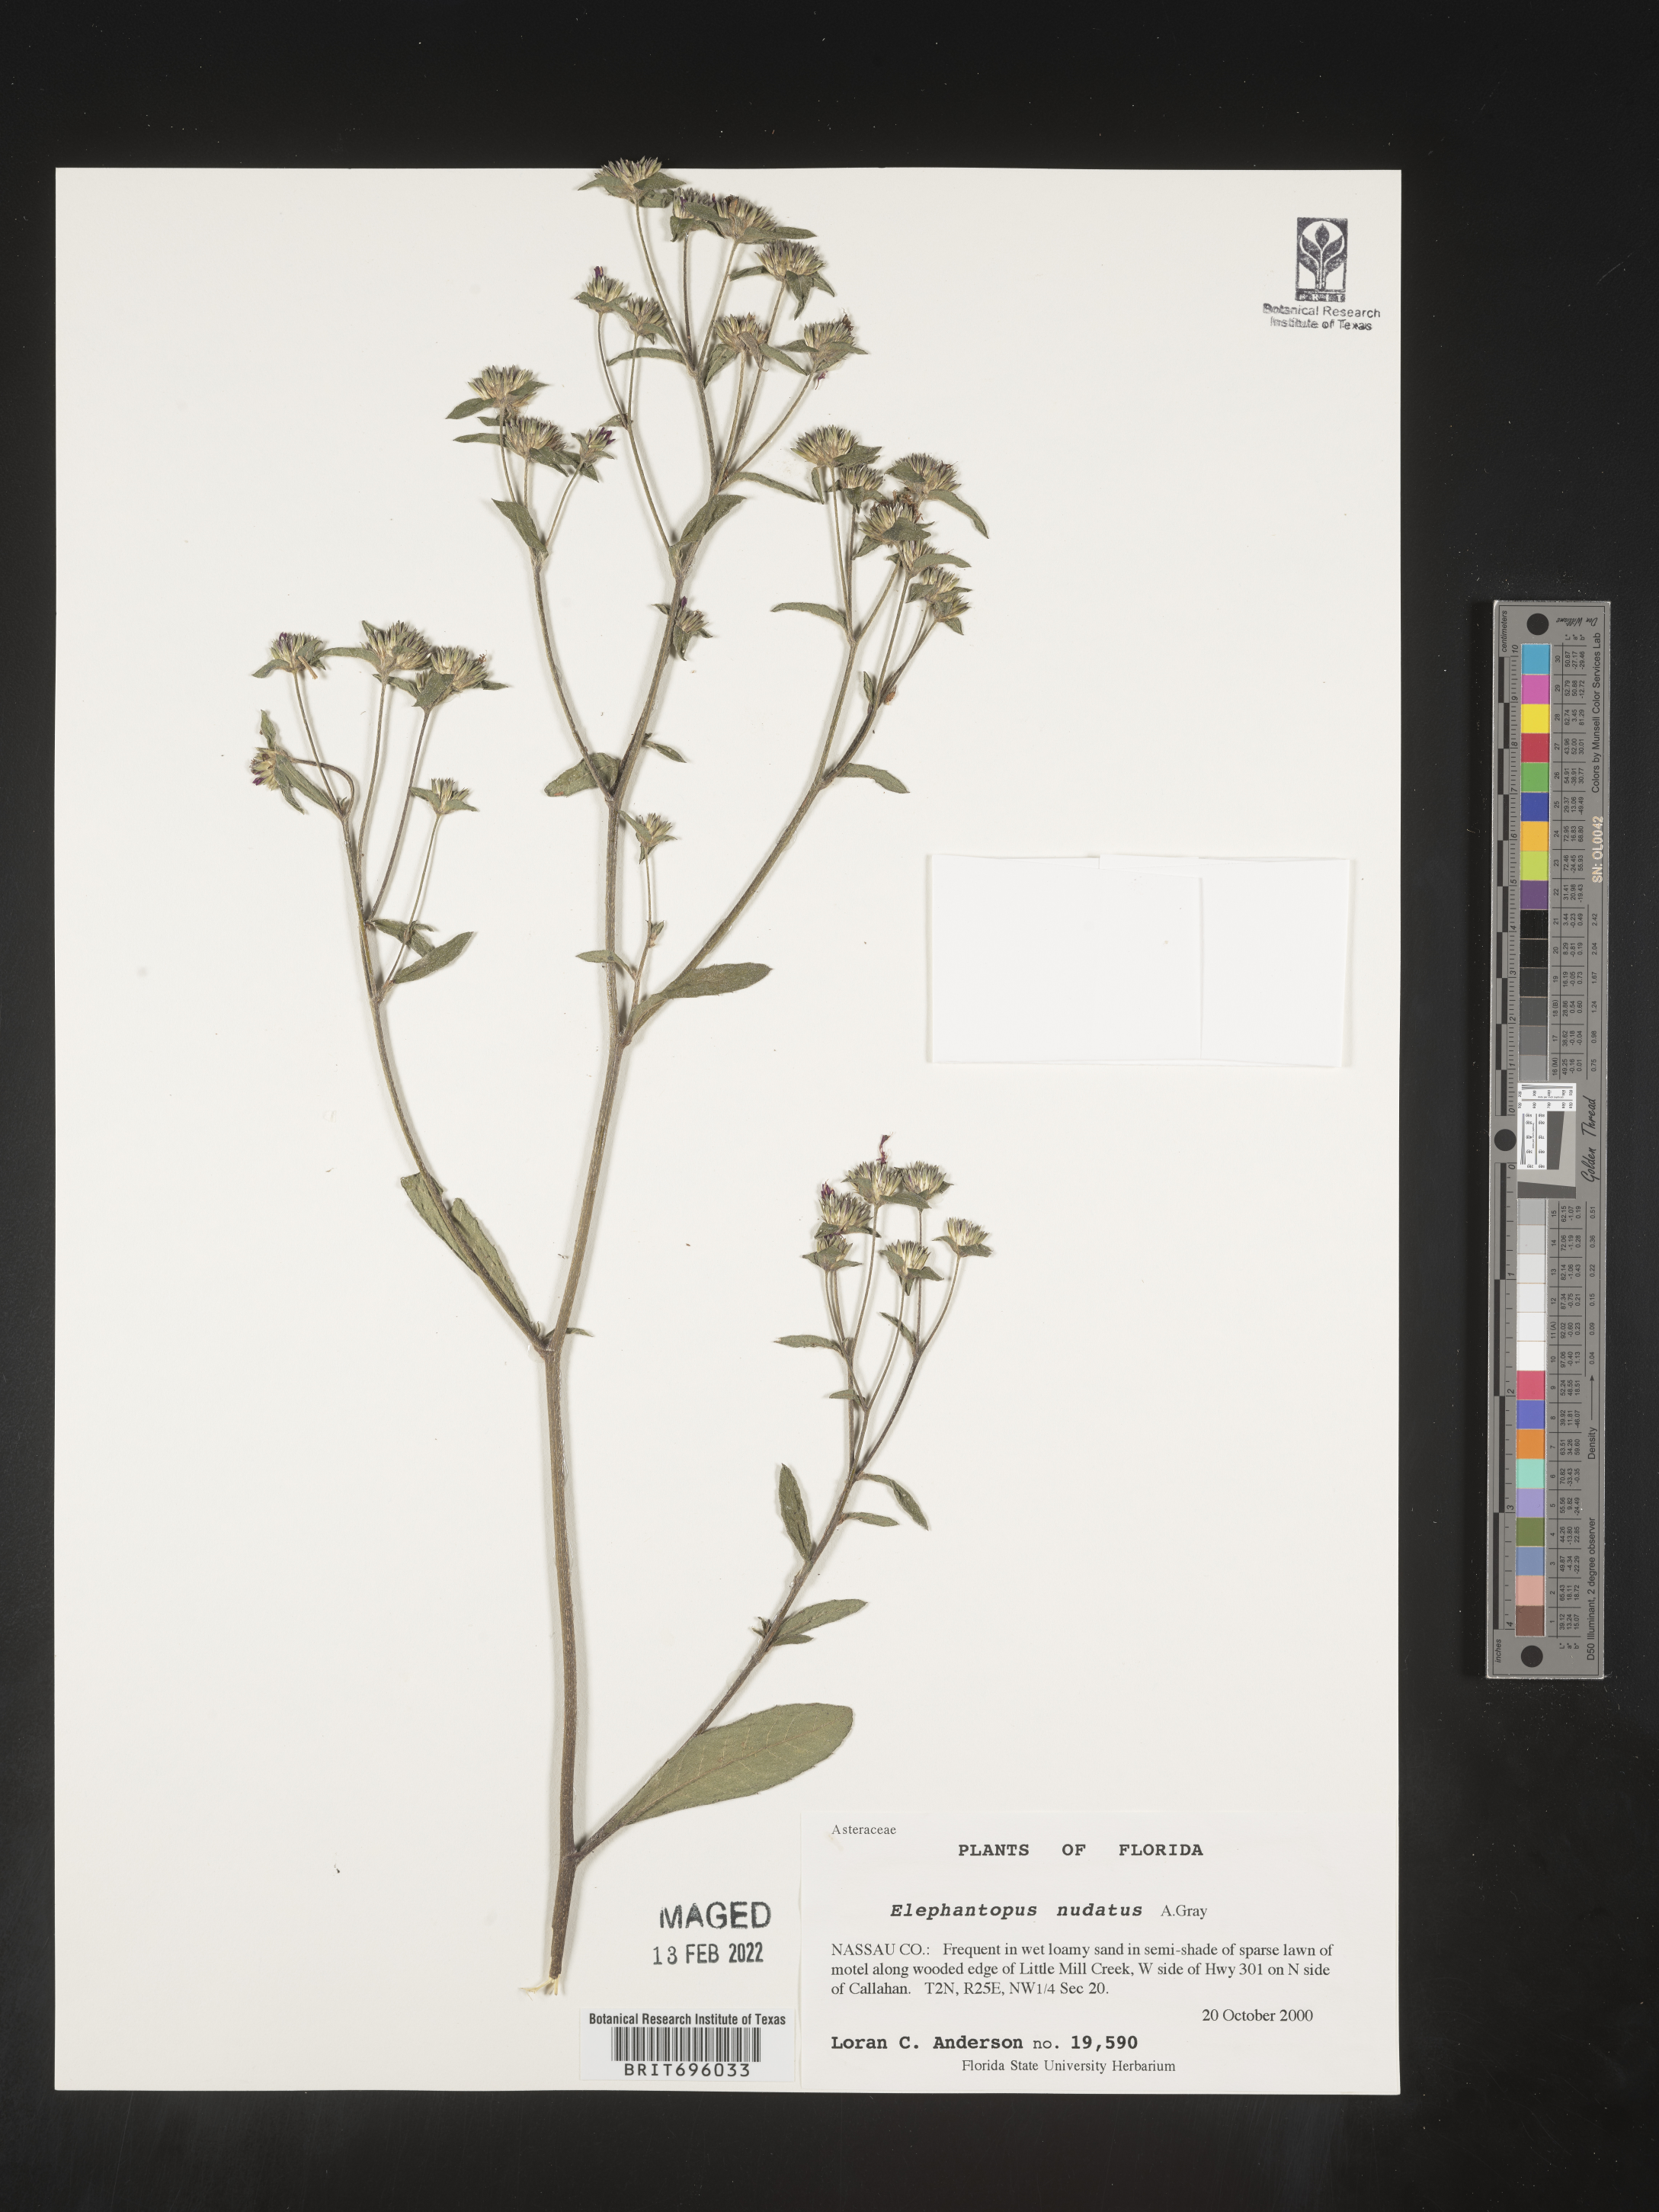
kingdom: Plantae
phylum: Tracheophyta
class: Magnoliopsida
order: Asterales
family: Asteraceae
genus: Elephantopus
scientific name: Elephantopus nudatus
